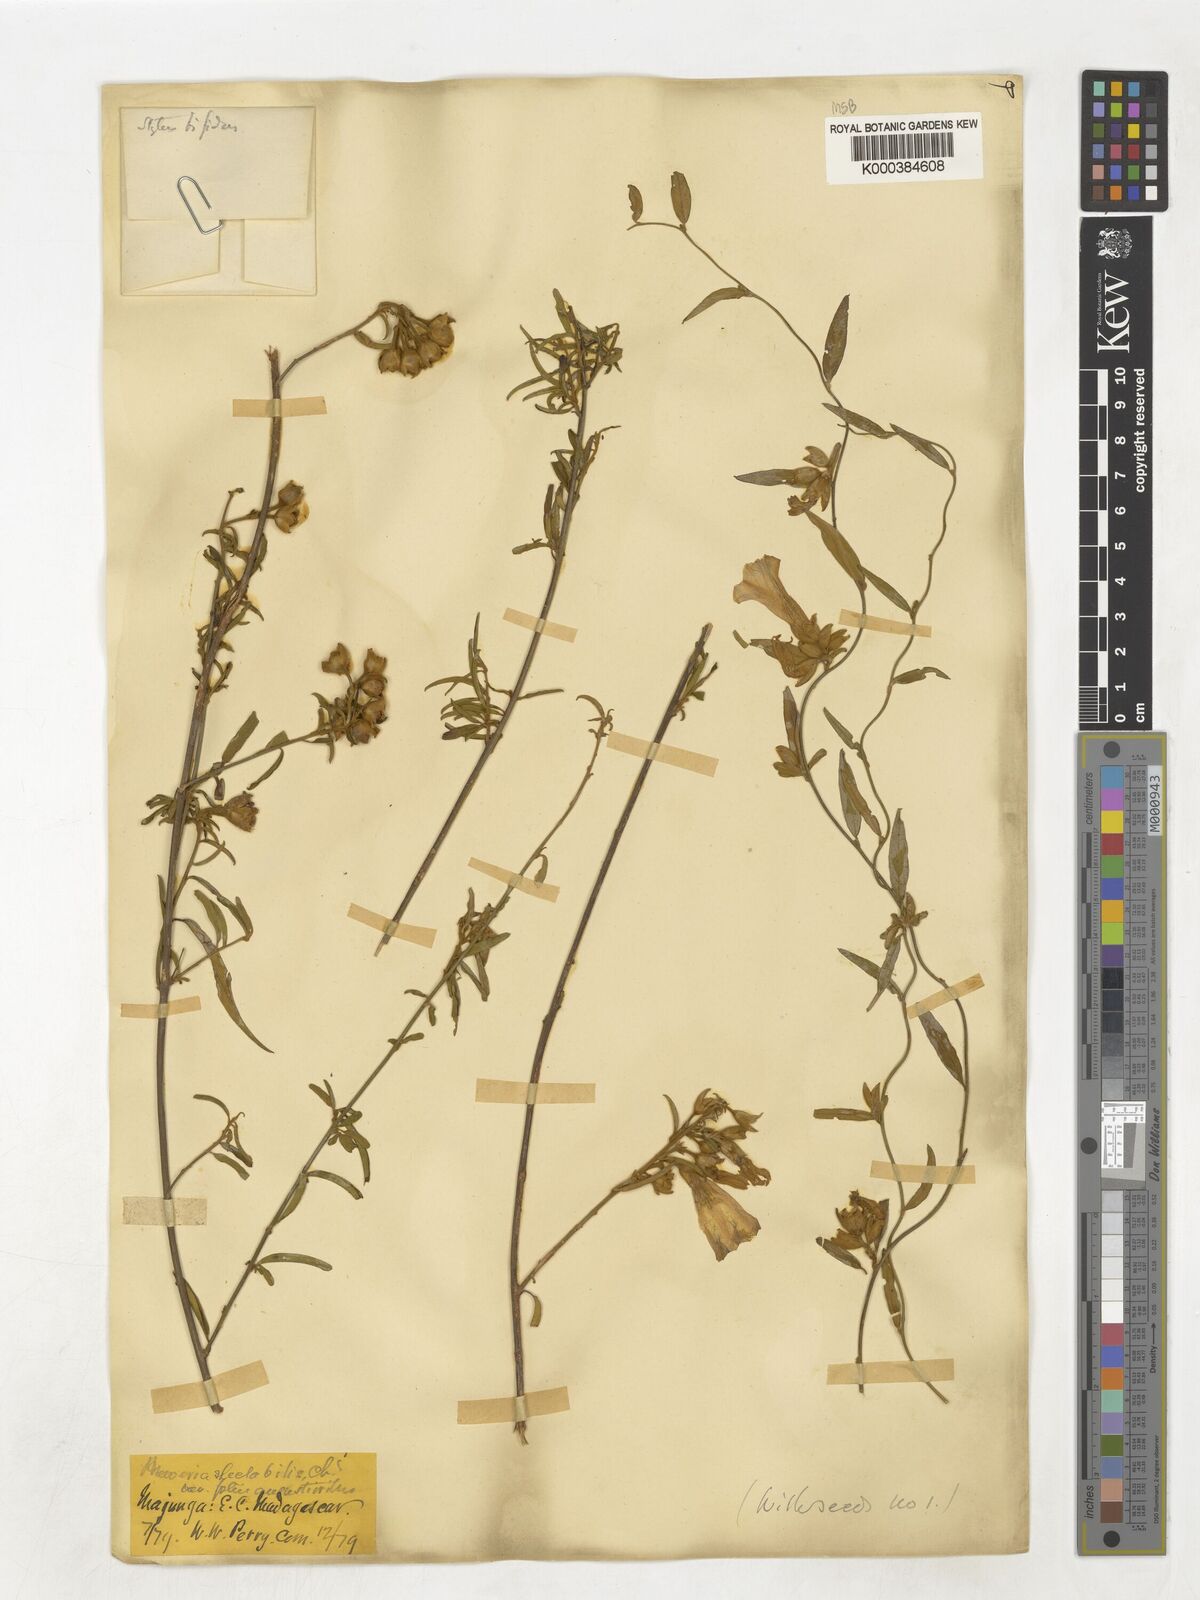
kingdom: Plantae
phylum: Tracheophyta
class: Magnoliopsida
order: Solanales
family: Convolvulaceae
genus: Bonamia
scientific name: Bonamia spectabilis
